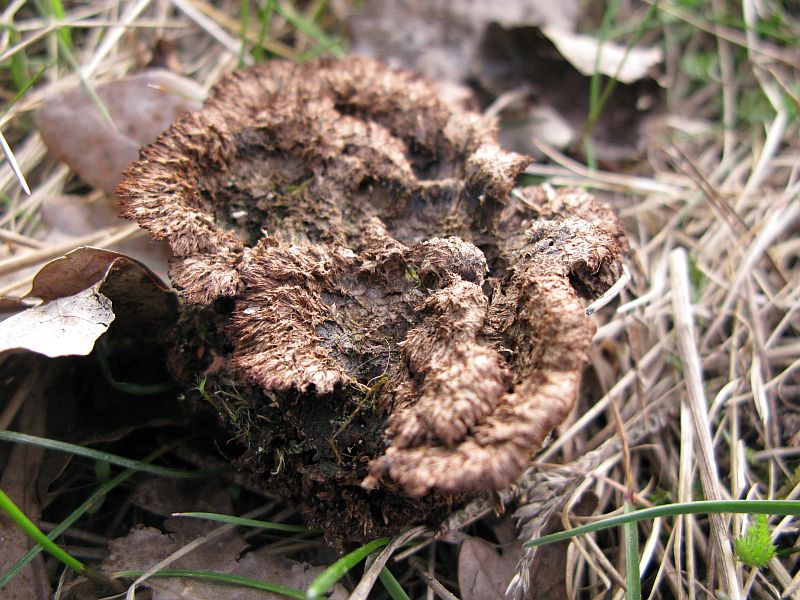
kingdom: Fungi
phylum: Basidiomycota
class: Agaricomycetes
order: Thelephorales
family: Thelephoraceae
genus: Thelephora
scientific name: Thelephora terrestris
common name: fliget frynsesvamp
